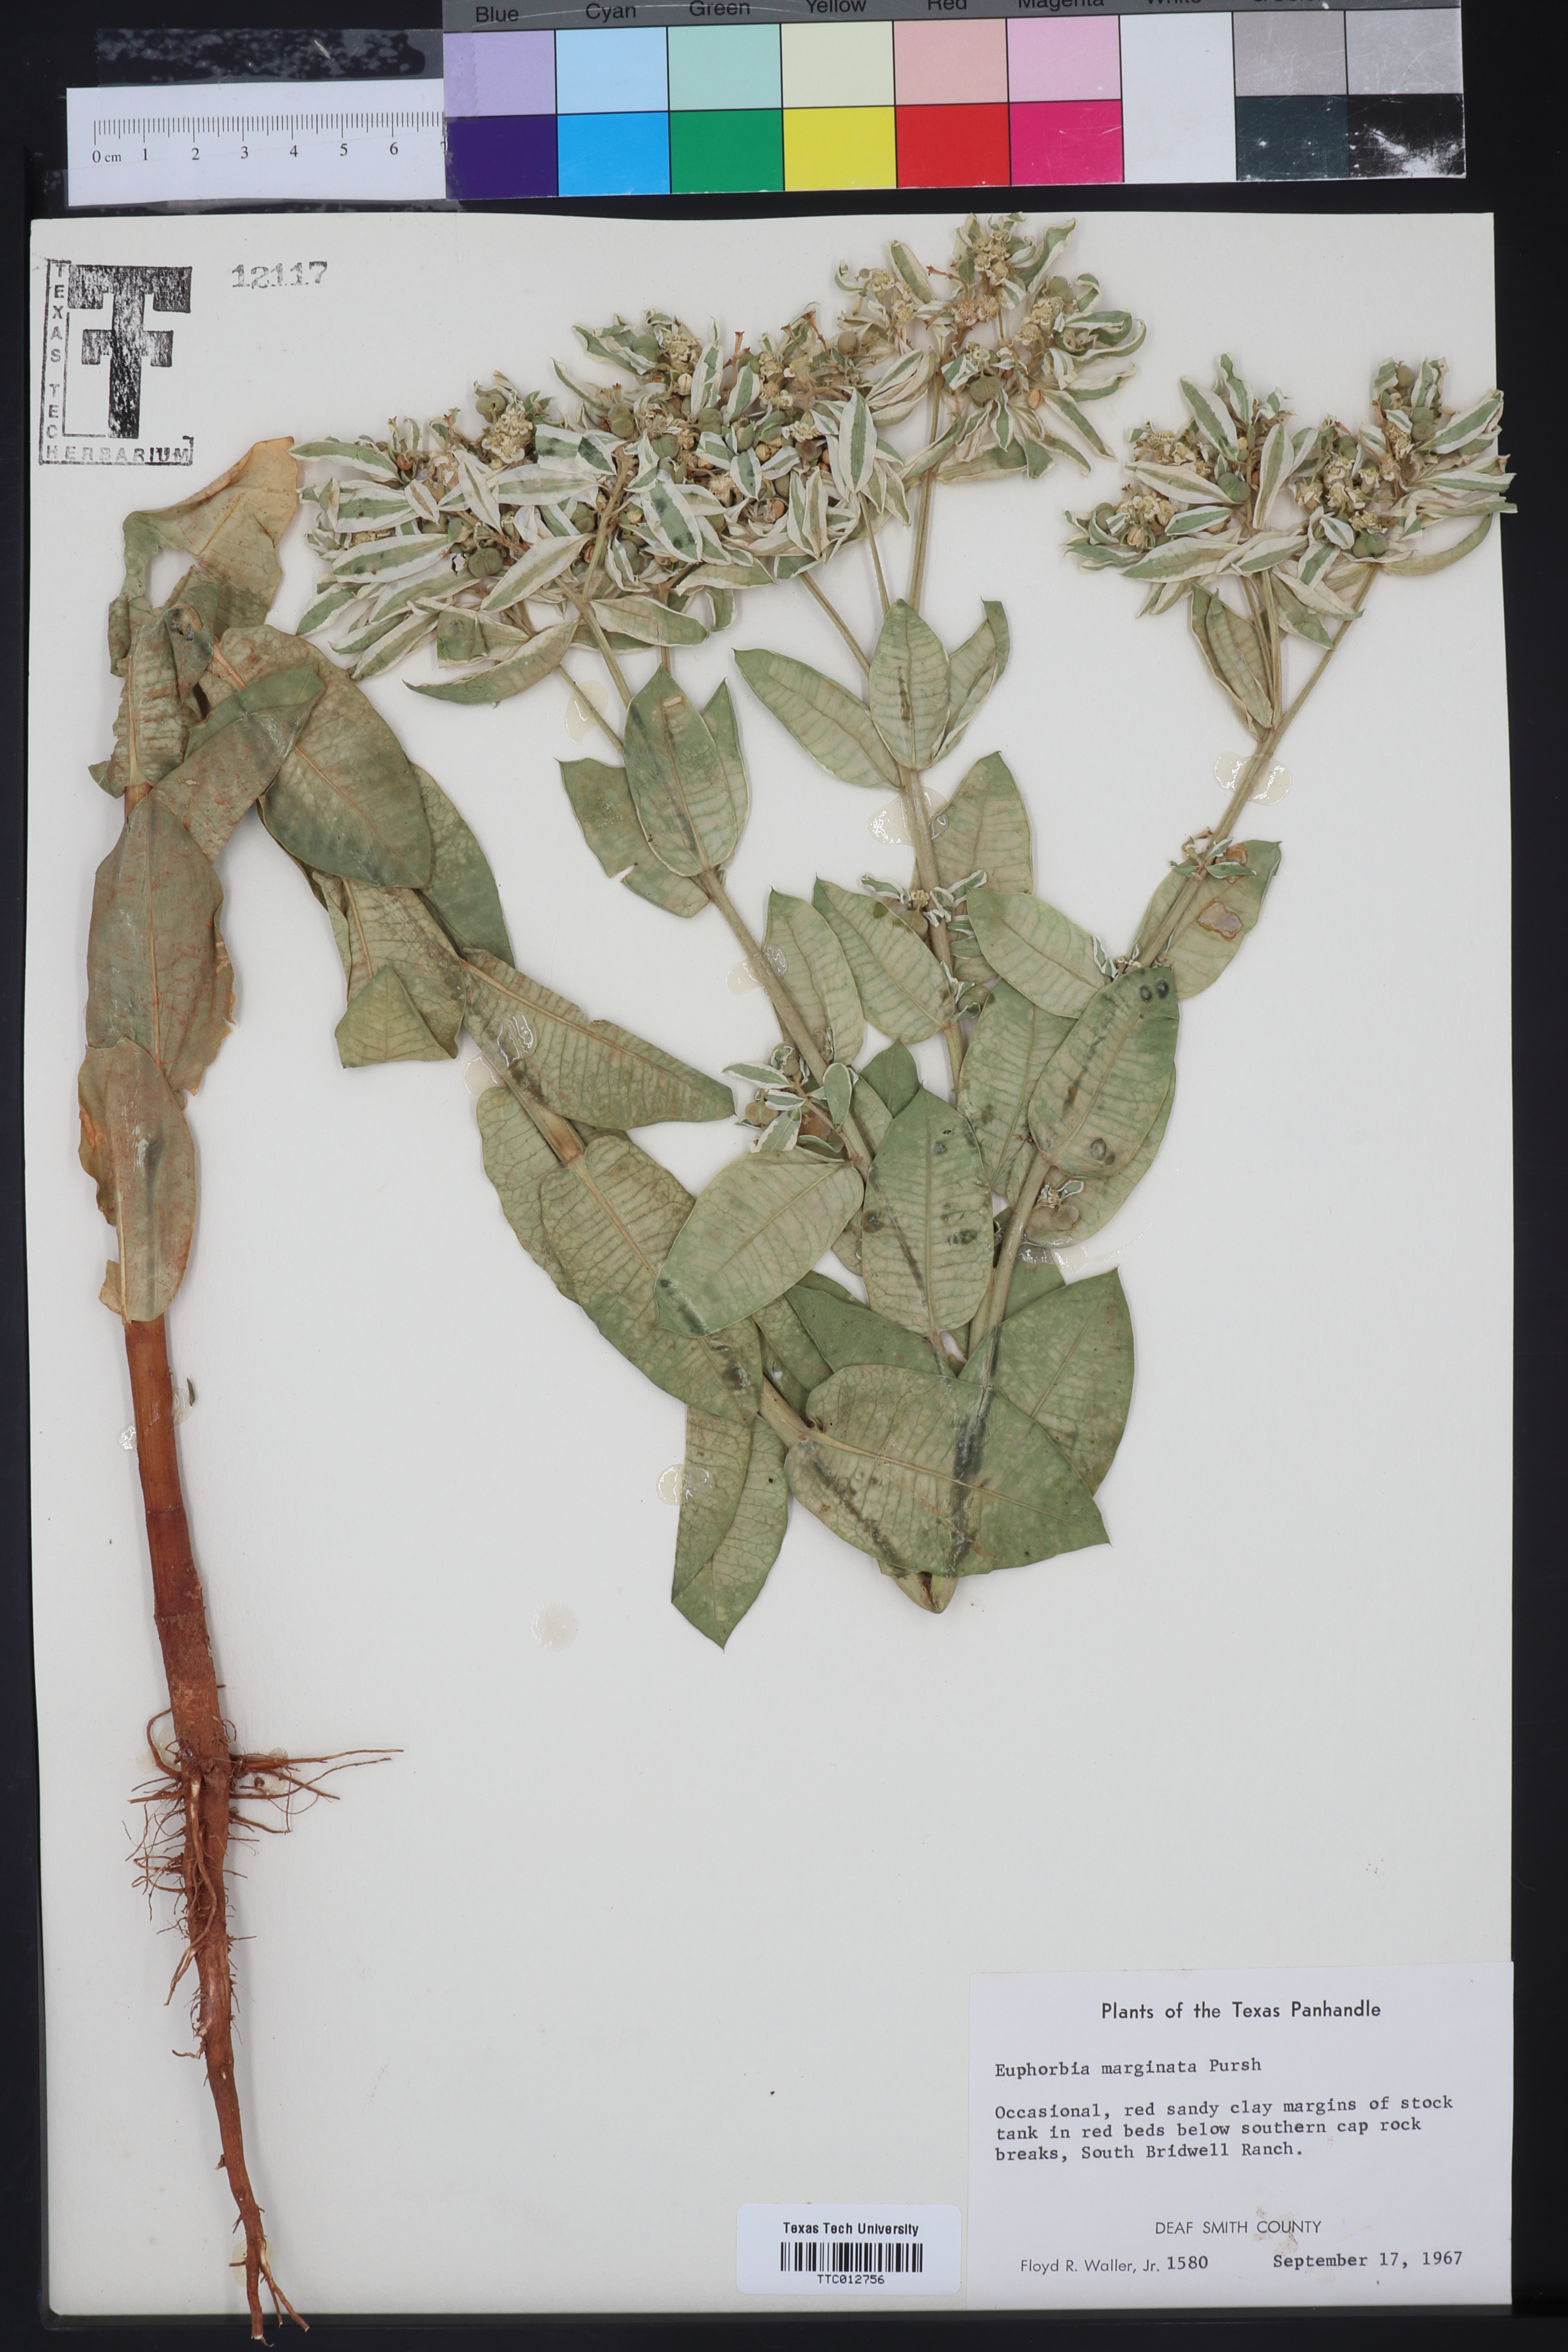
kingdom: Plantae
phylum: Tracheophyta
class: Magnoliopsida
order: Malpighiales
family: Euphorbiaceae
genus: Euphorbia
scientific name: Euphorbia marginata
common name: Ghostweed
